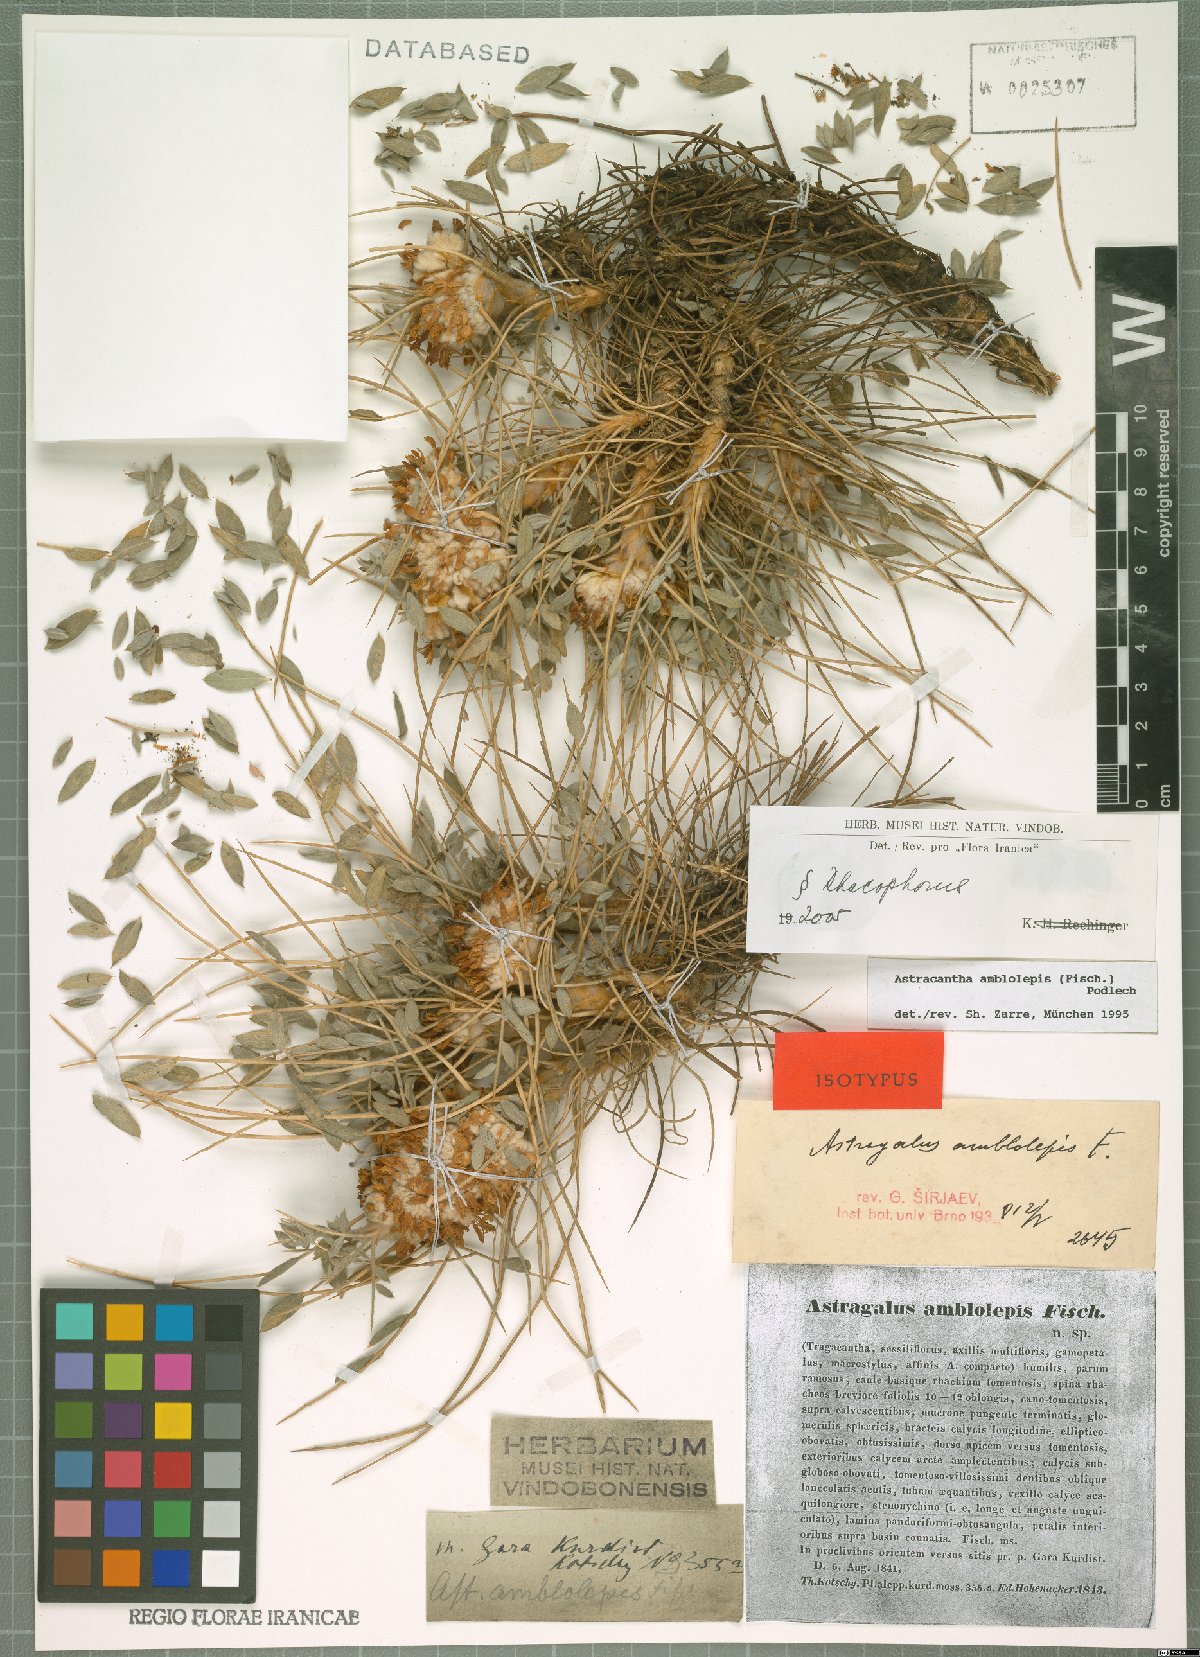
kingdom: Plantae
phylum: Tracheophyta
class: Magnoliopsida
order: Fabales
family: Fabaceae
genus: Astragalus
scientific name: Astragalus amblolepis
